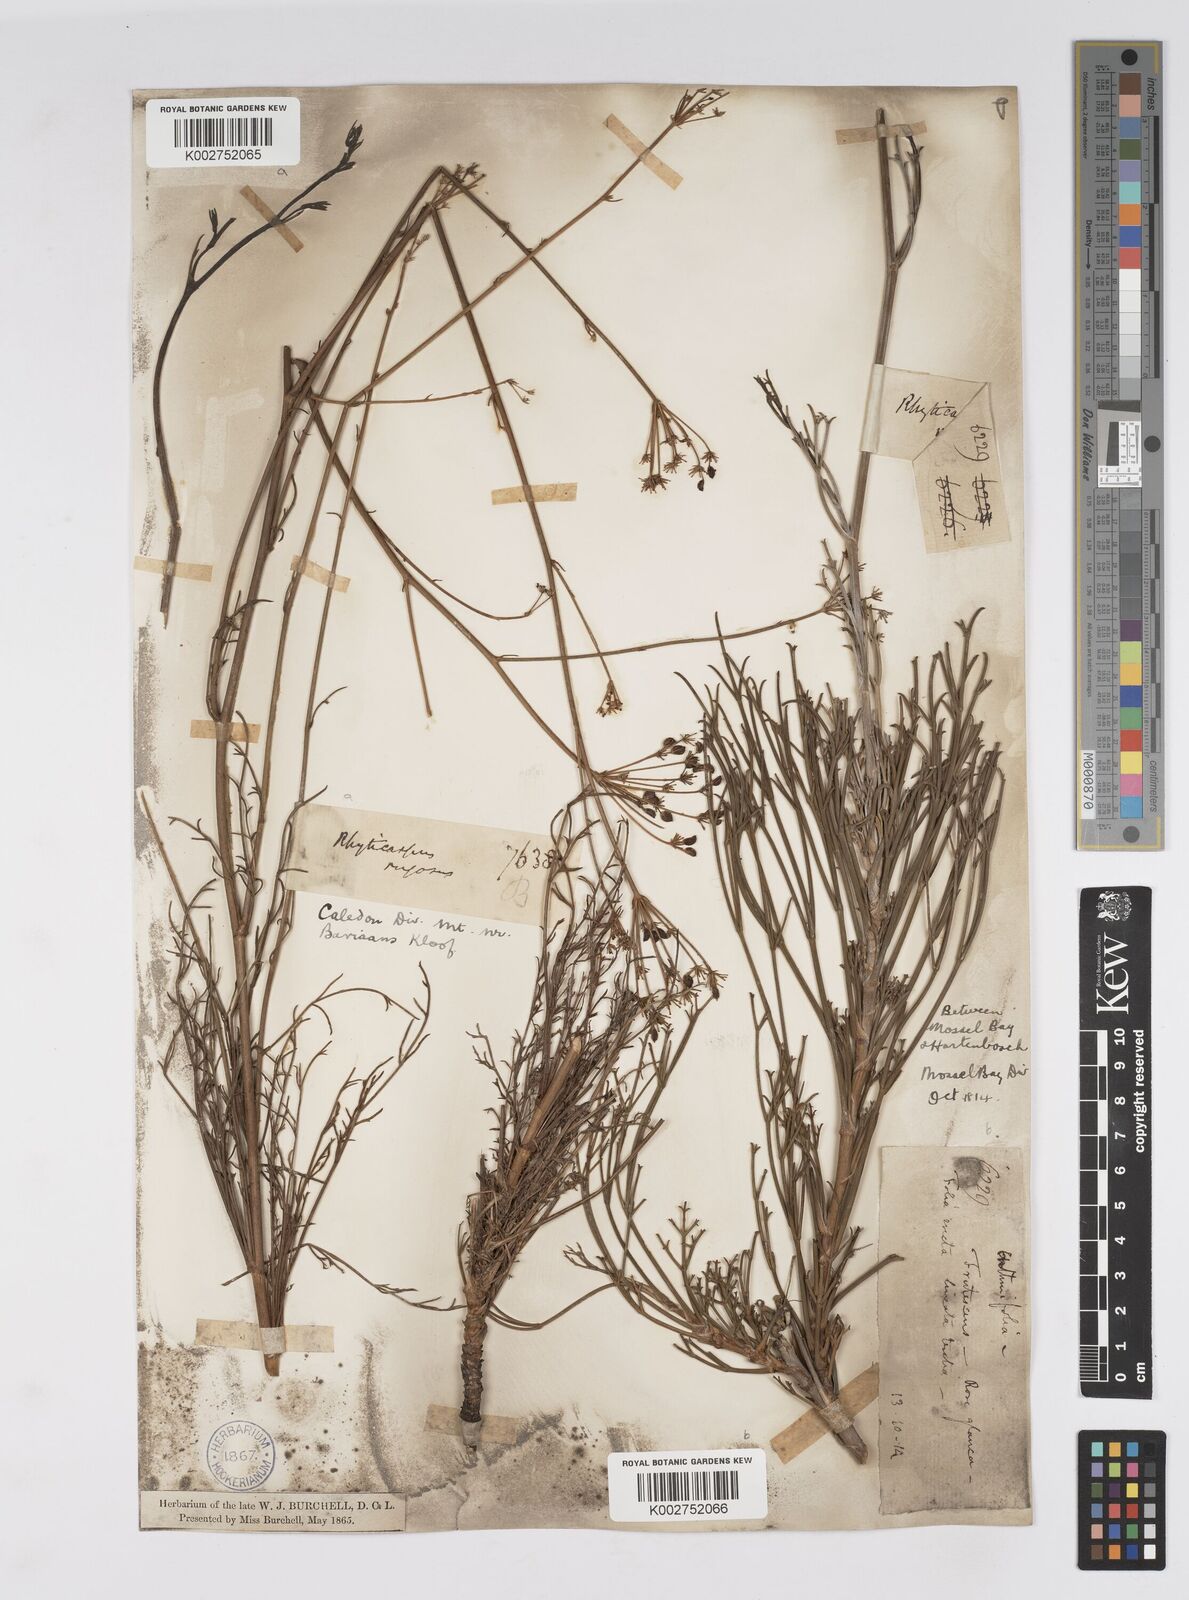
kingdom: Plantae
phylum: Tracheophyta
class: Magnoliopsida
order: Apiales
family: Apiaceae
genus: Anginon
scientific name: Anginon rugosum
